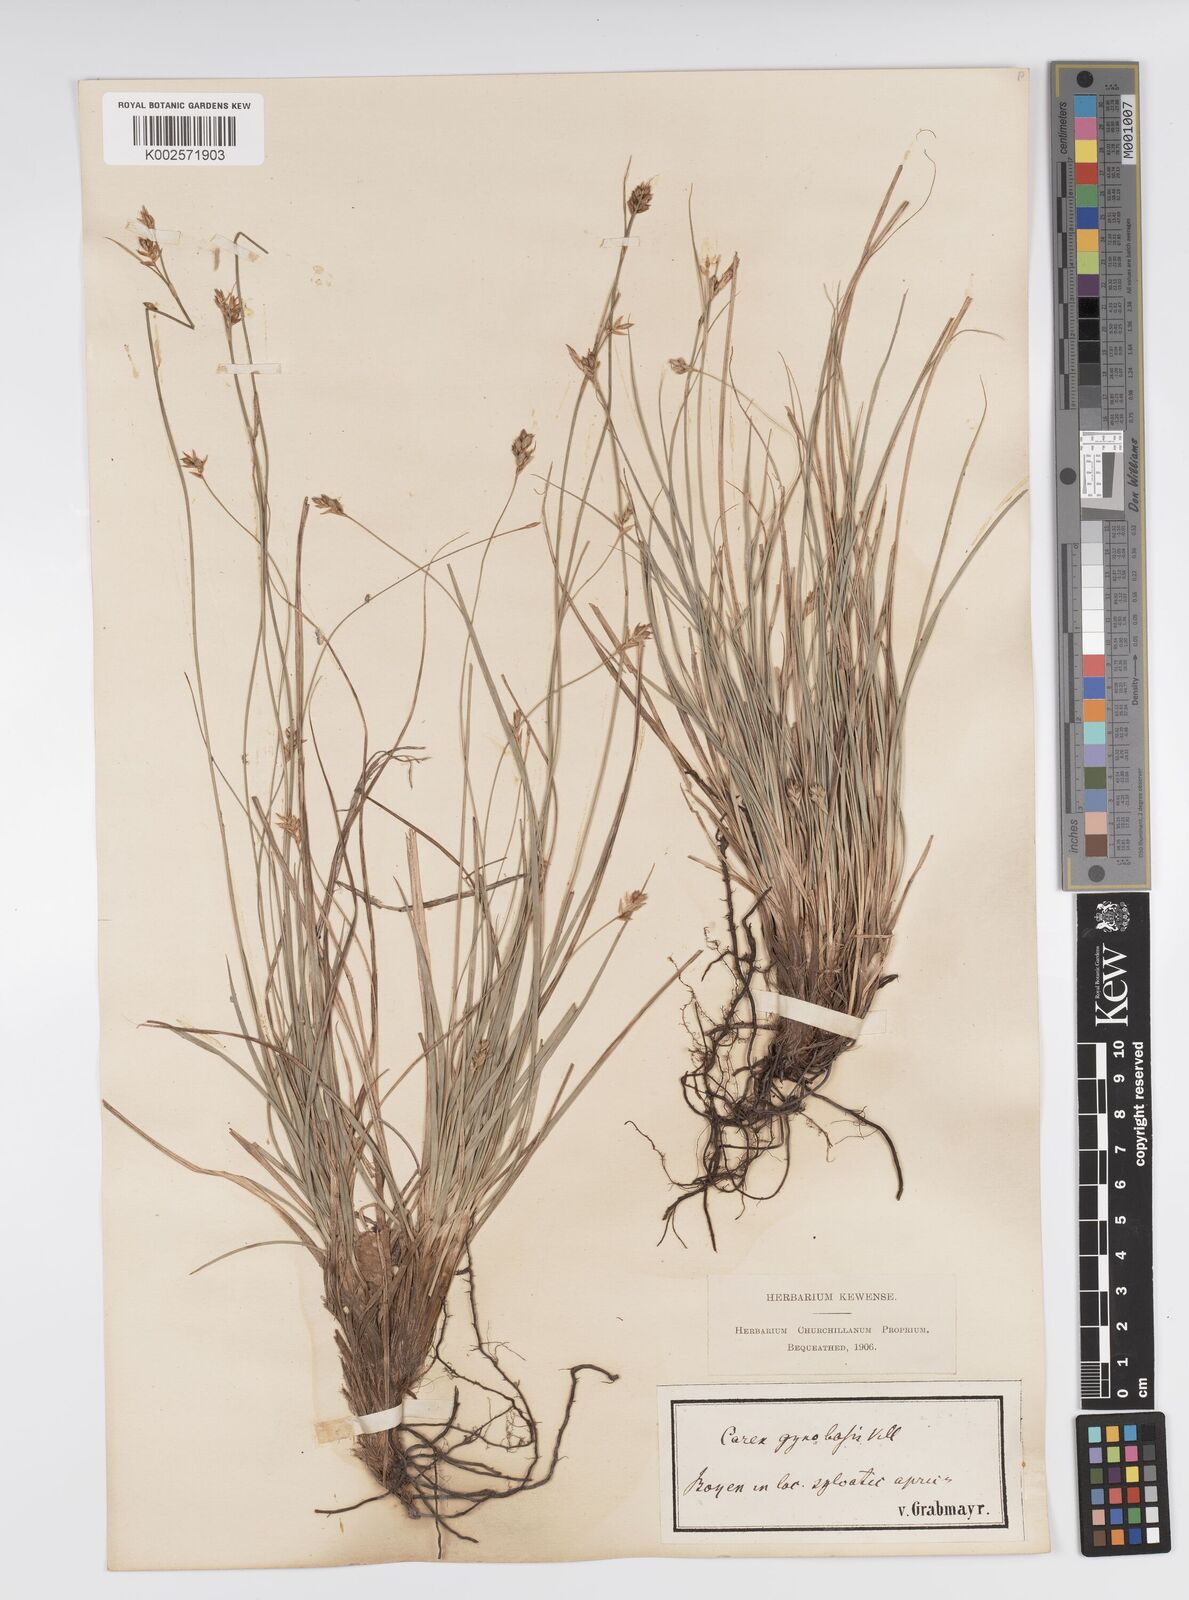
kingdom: Plantae
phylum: Tracheophyta
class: Liliopsida
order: Poales
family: Cyperaceae
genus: Carex
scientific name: Carex halleriana
